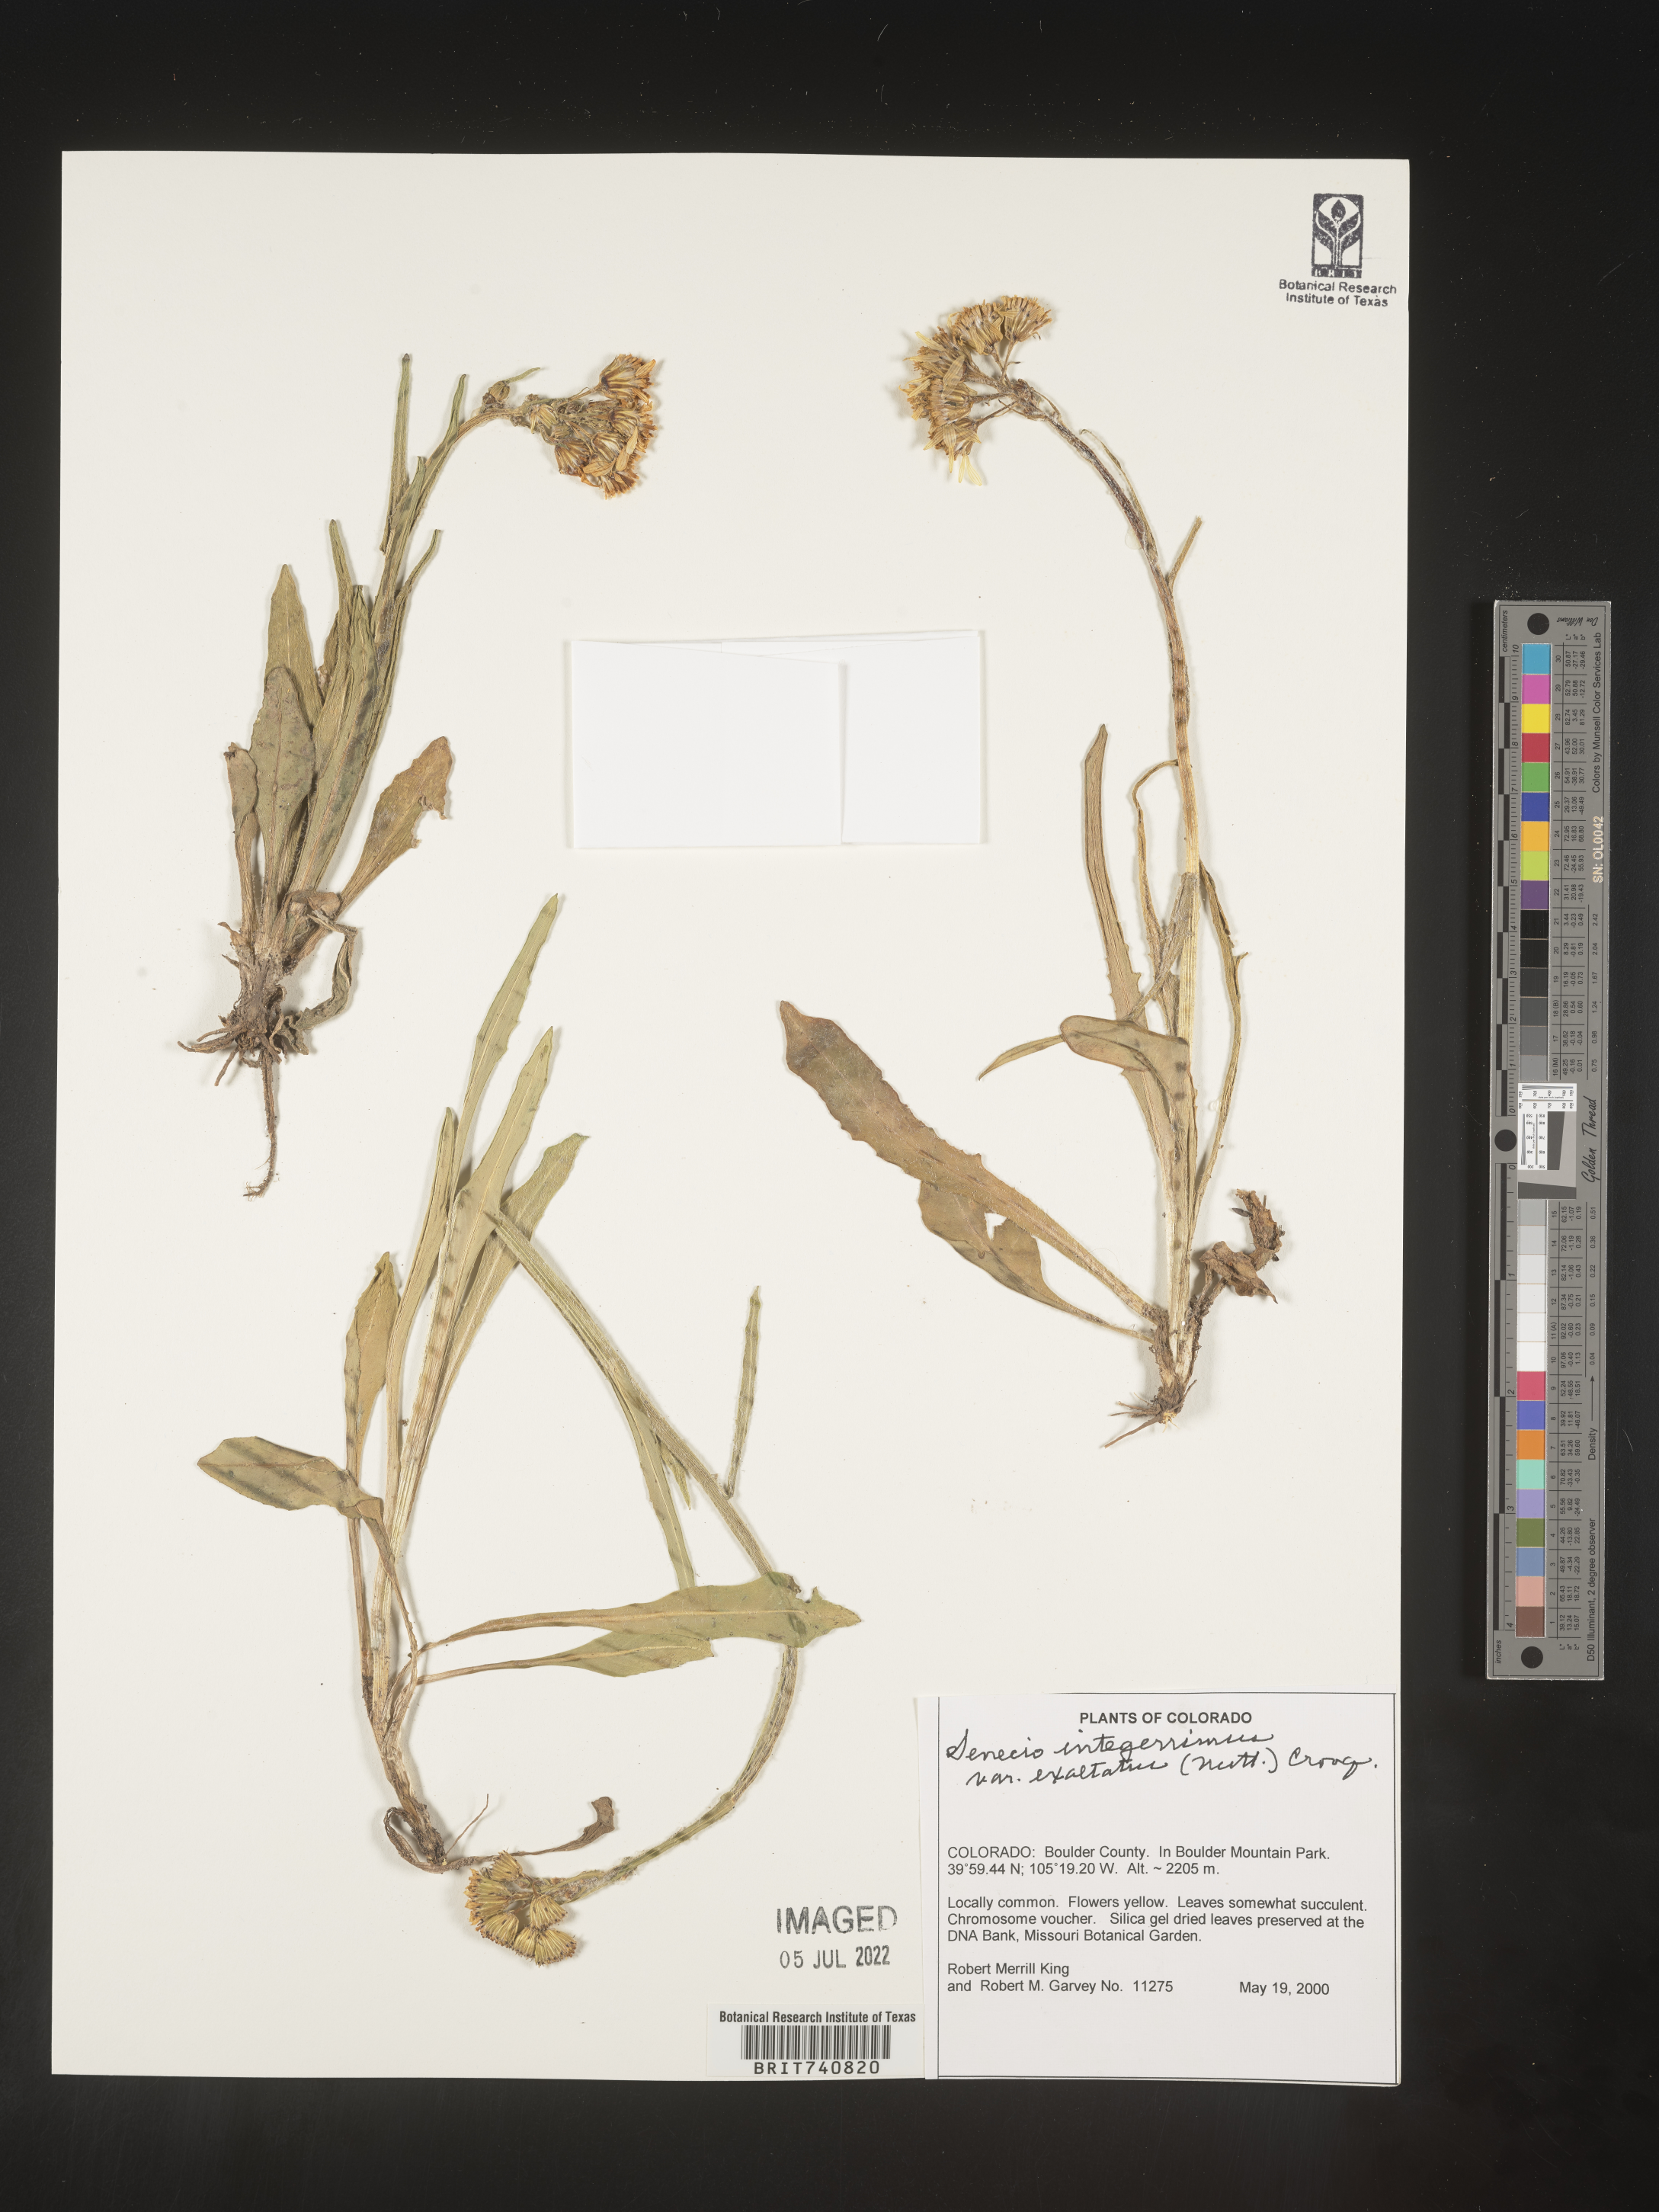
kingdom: Plantae
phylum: Tracheophyta
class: Magnoliopsida
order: Asterales
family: Asteraceae
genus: Senecio
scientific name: Senecio integerrimus
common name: Gaugeplant
